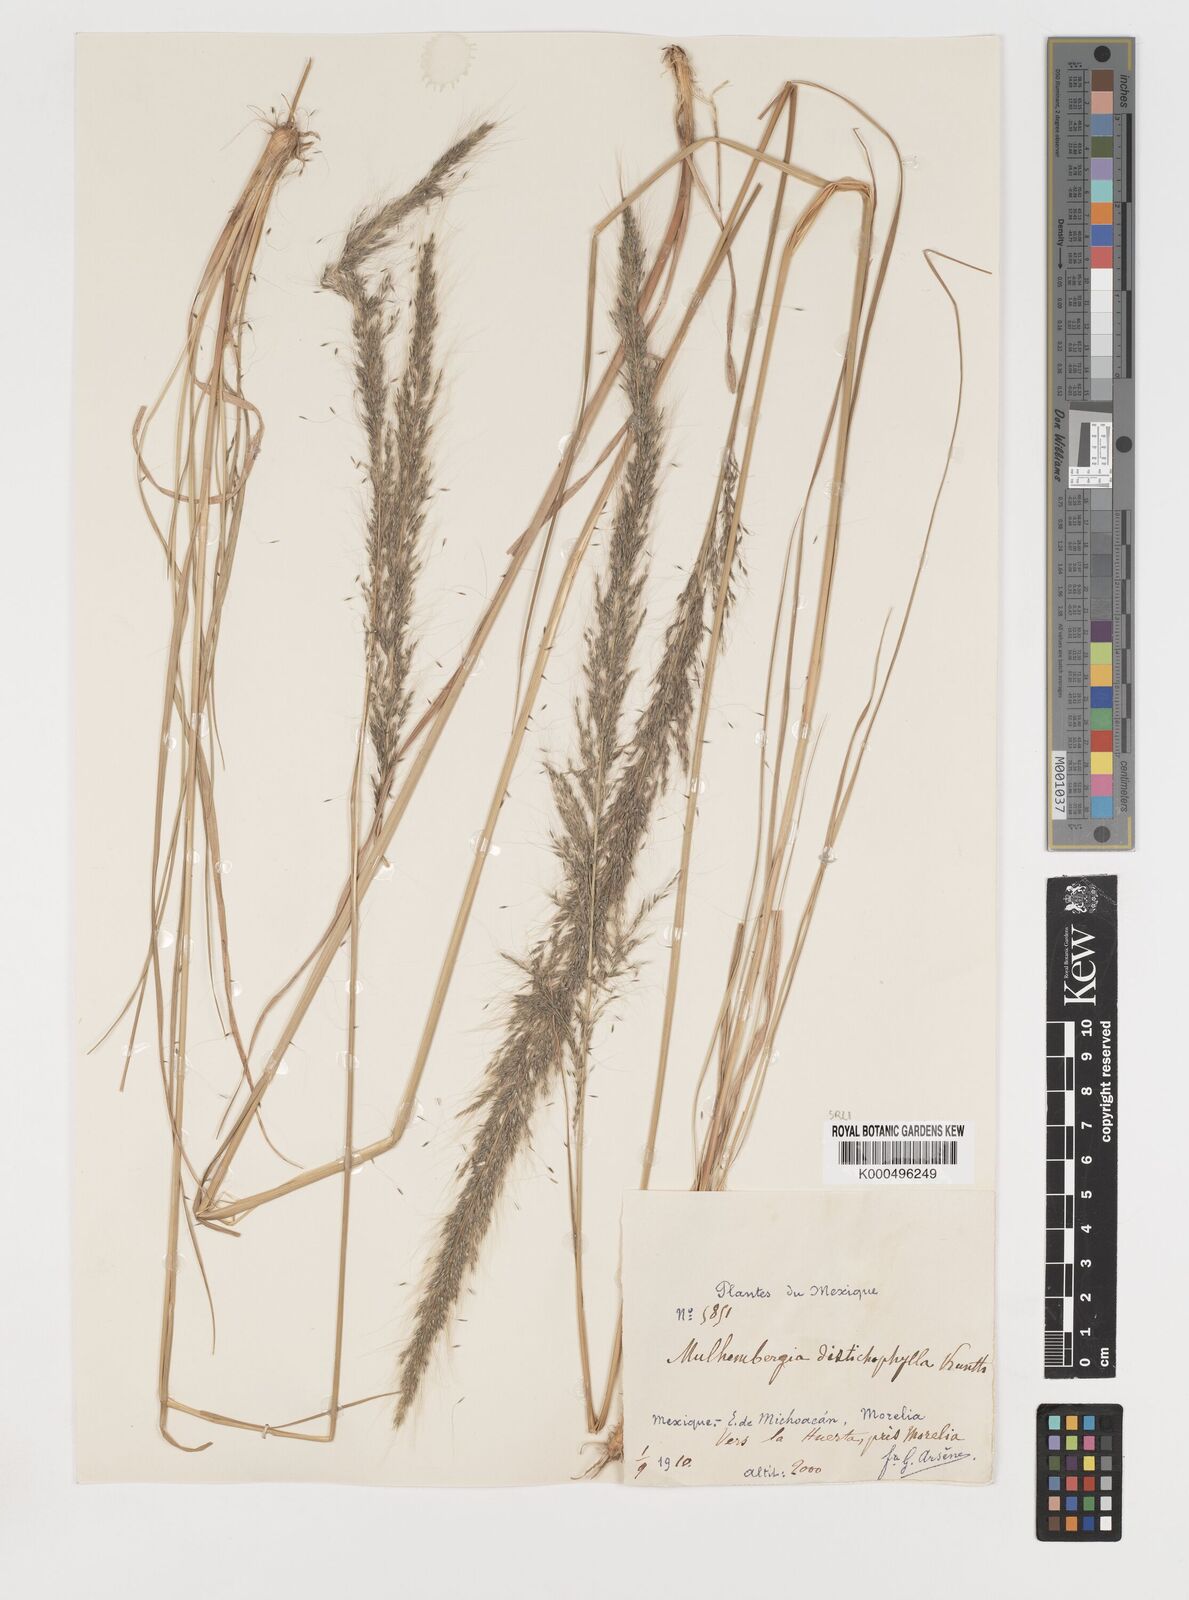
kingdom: Plantae
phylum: Tracheophyta
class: Liliopsida
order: Poales
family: Poaceae
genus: Muhlenbergia
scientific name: Muhlenbergia
